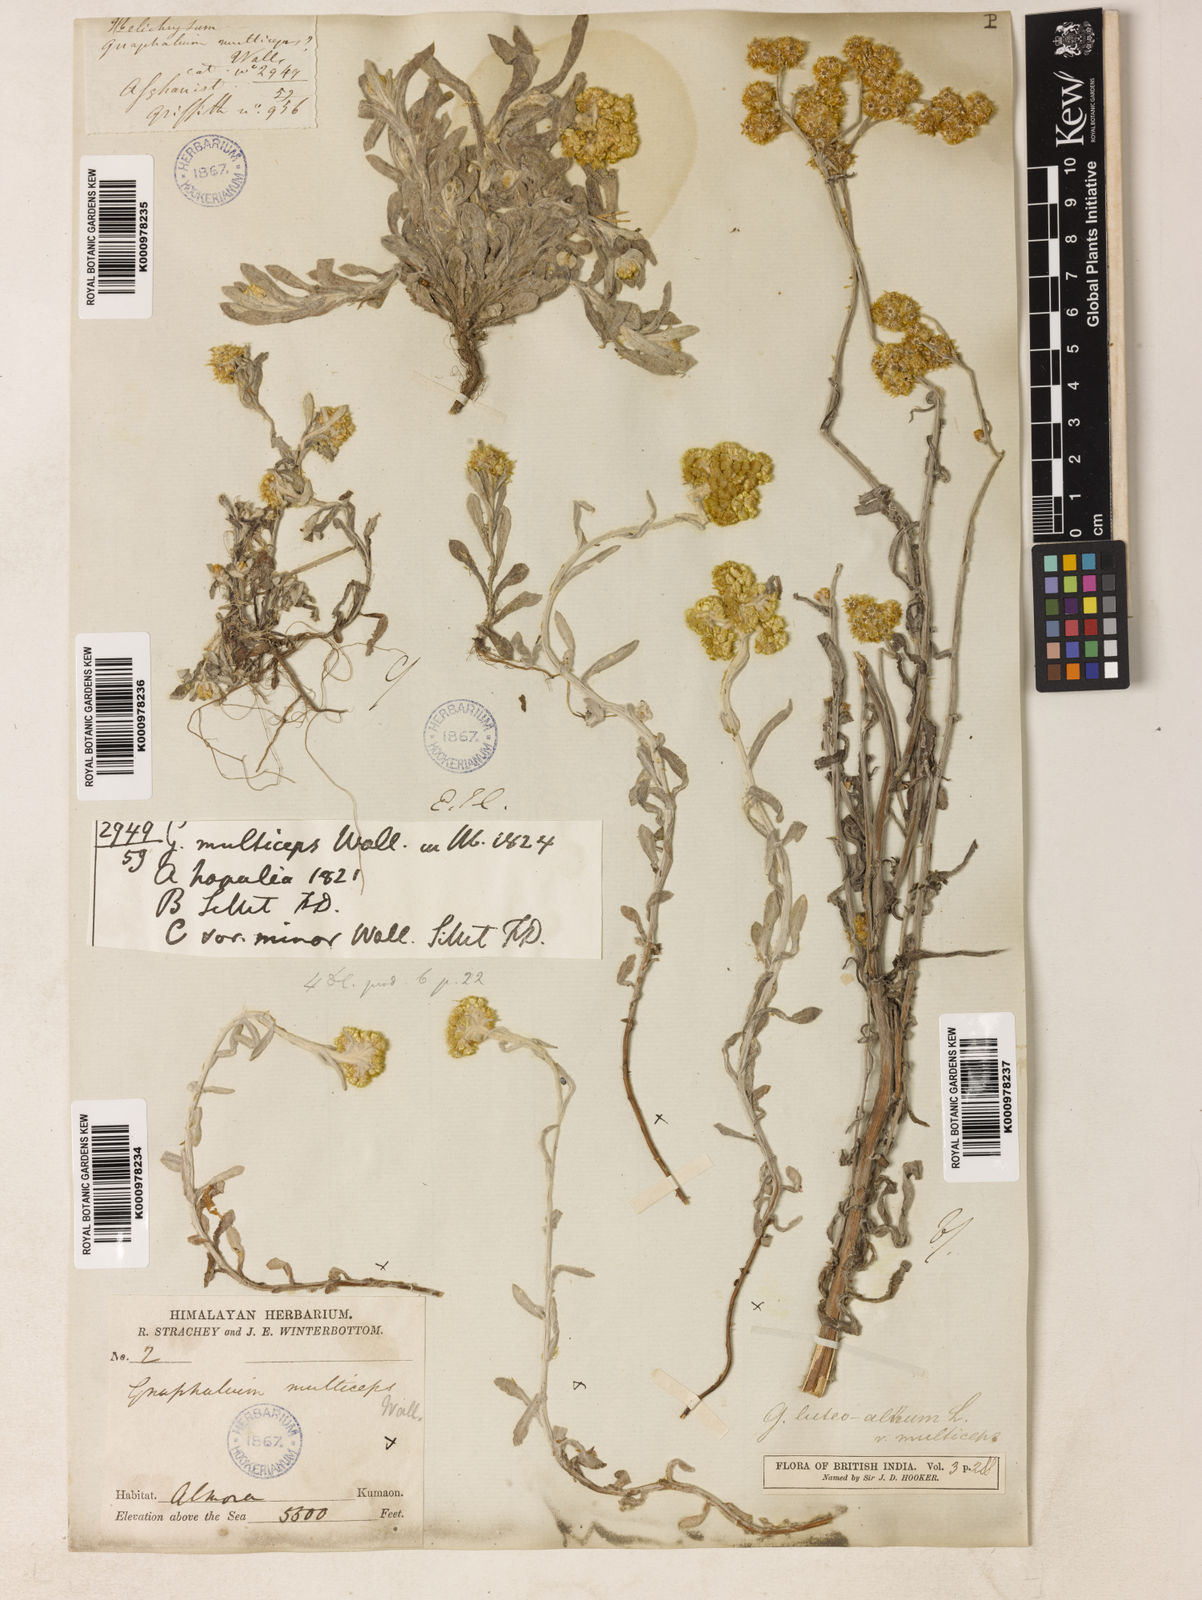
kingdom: Plantae
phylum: Tracheophyta
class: Magnoliopsida
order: Asterales
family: Asteraceae
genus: Helichrysum
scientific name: Helichrysum luteoalbum
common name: Daisy
